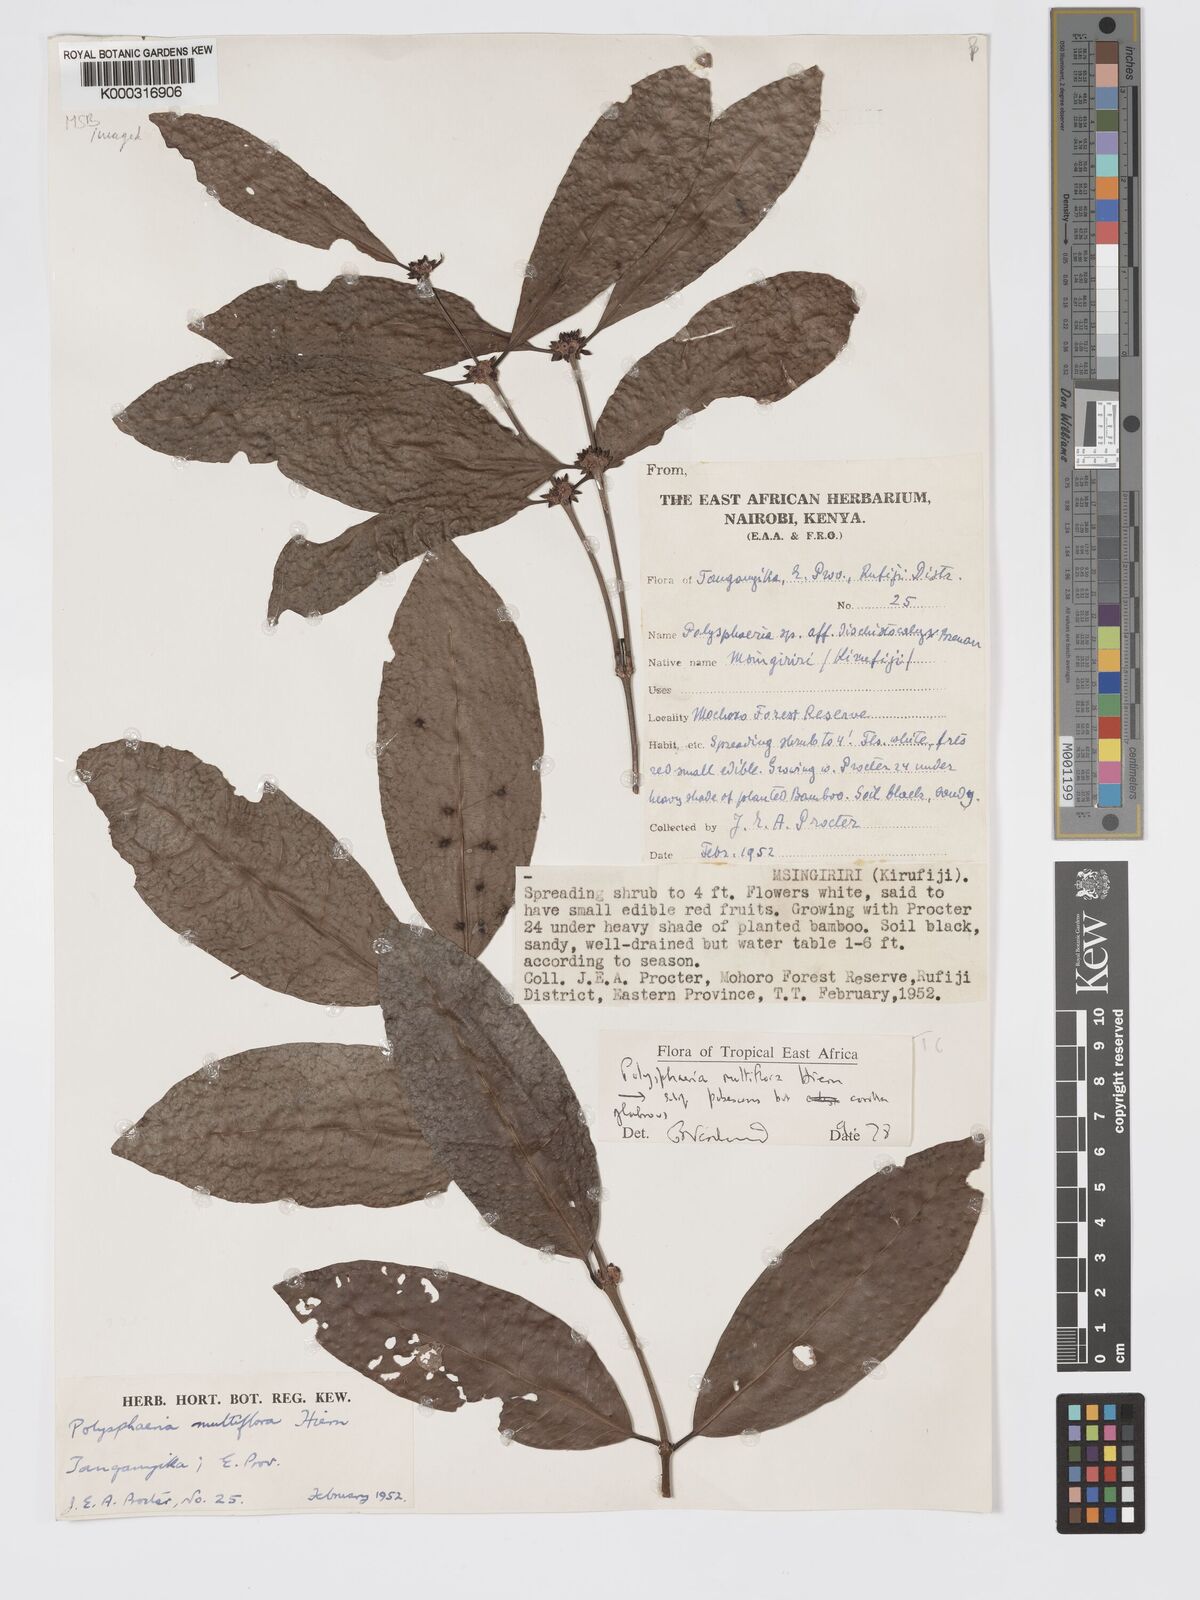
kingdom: Plantae
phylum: Tracheophyta
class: Magnoliopsida
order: Gentianales
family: Rubiaceae
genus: Polysphaeria
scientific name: Polysphaeria multiflora
